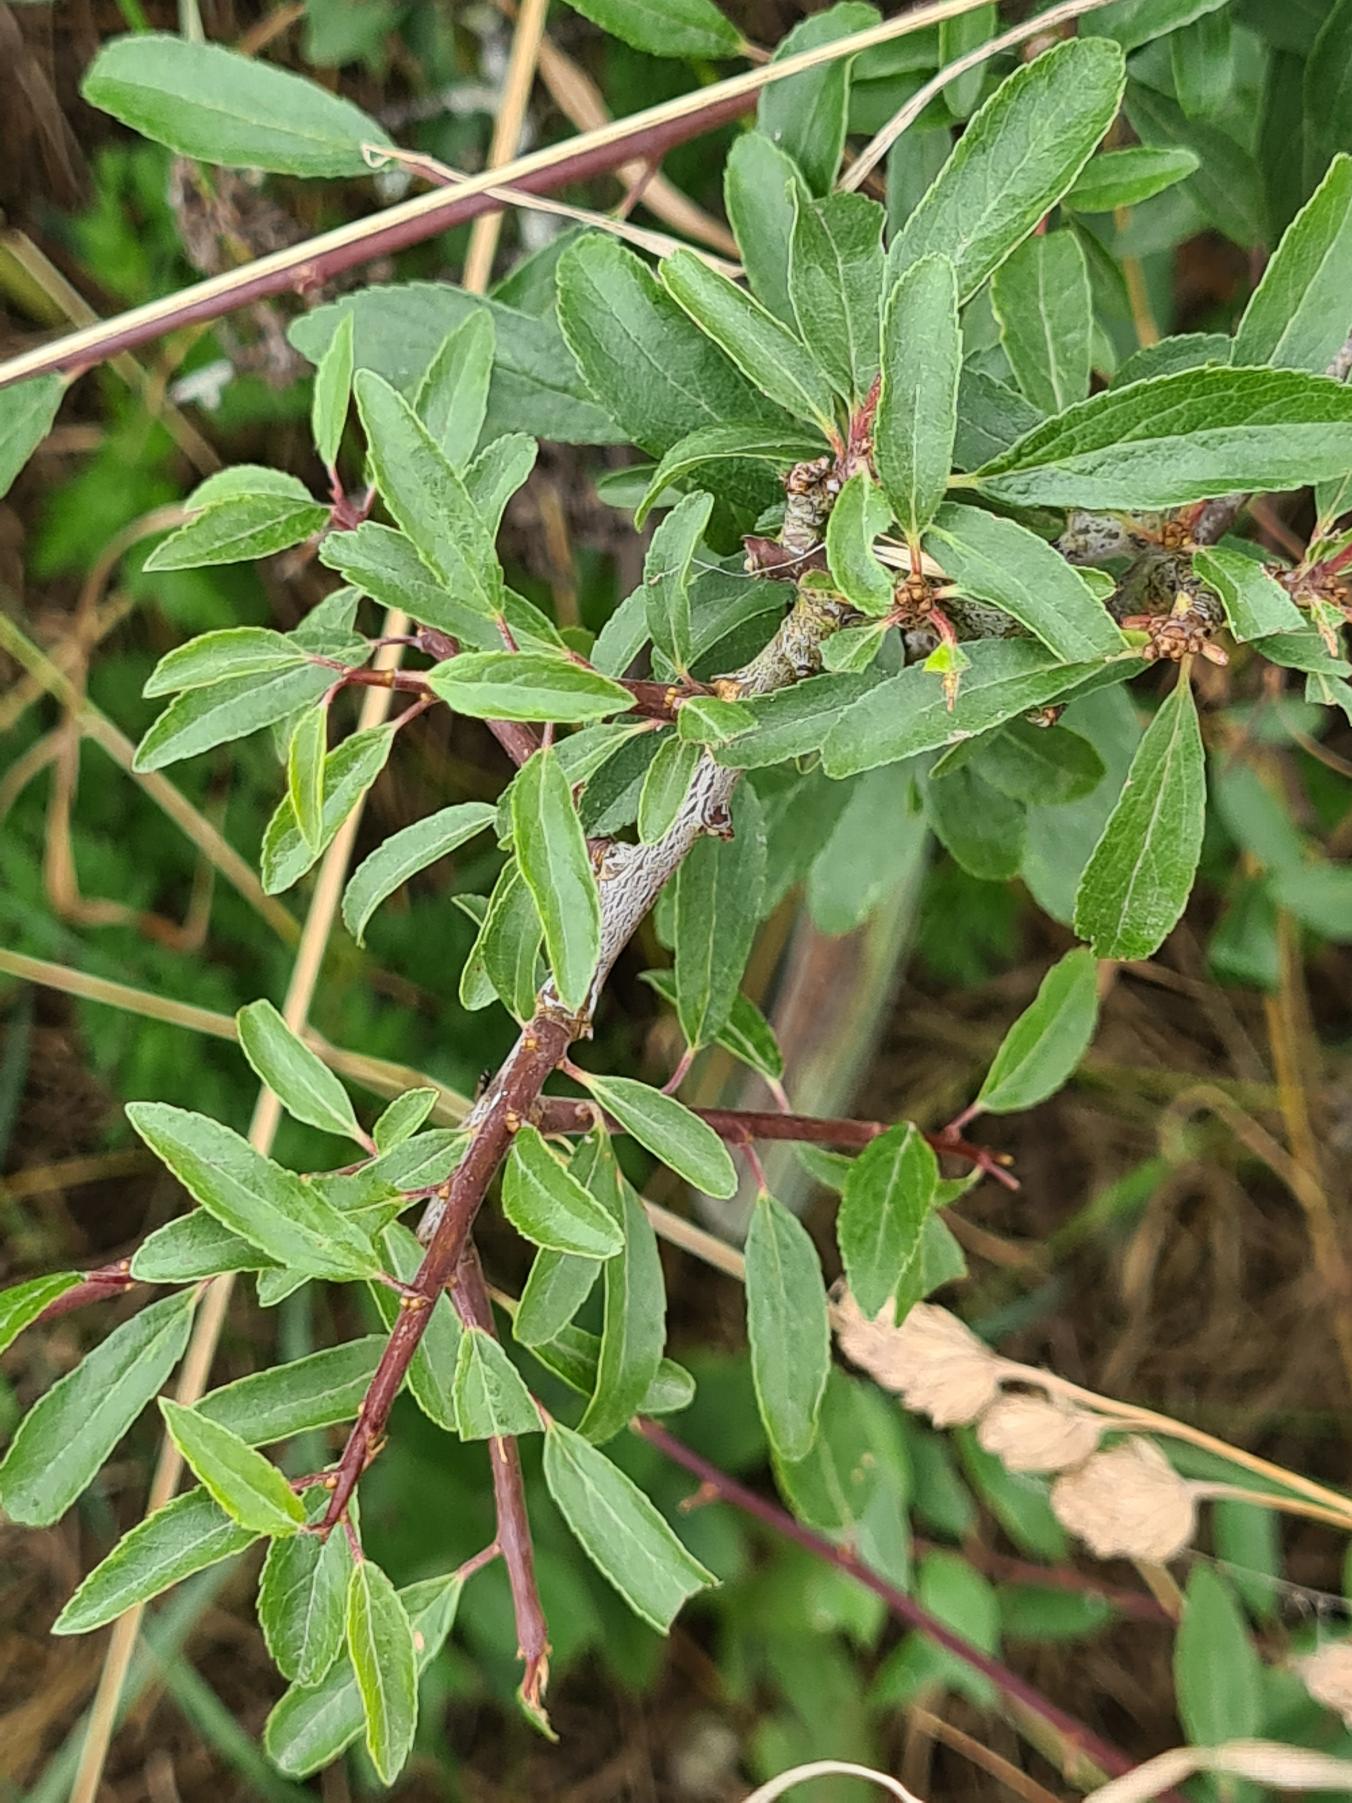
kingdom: Plantae
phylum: Tracheophyta
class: Magnoliopsida
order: Rosales
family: Rosaceae
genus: Prunus
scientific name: Prunus spinosa
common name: Slåen
